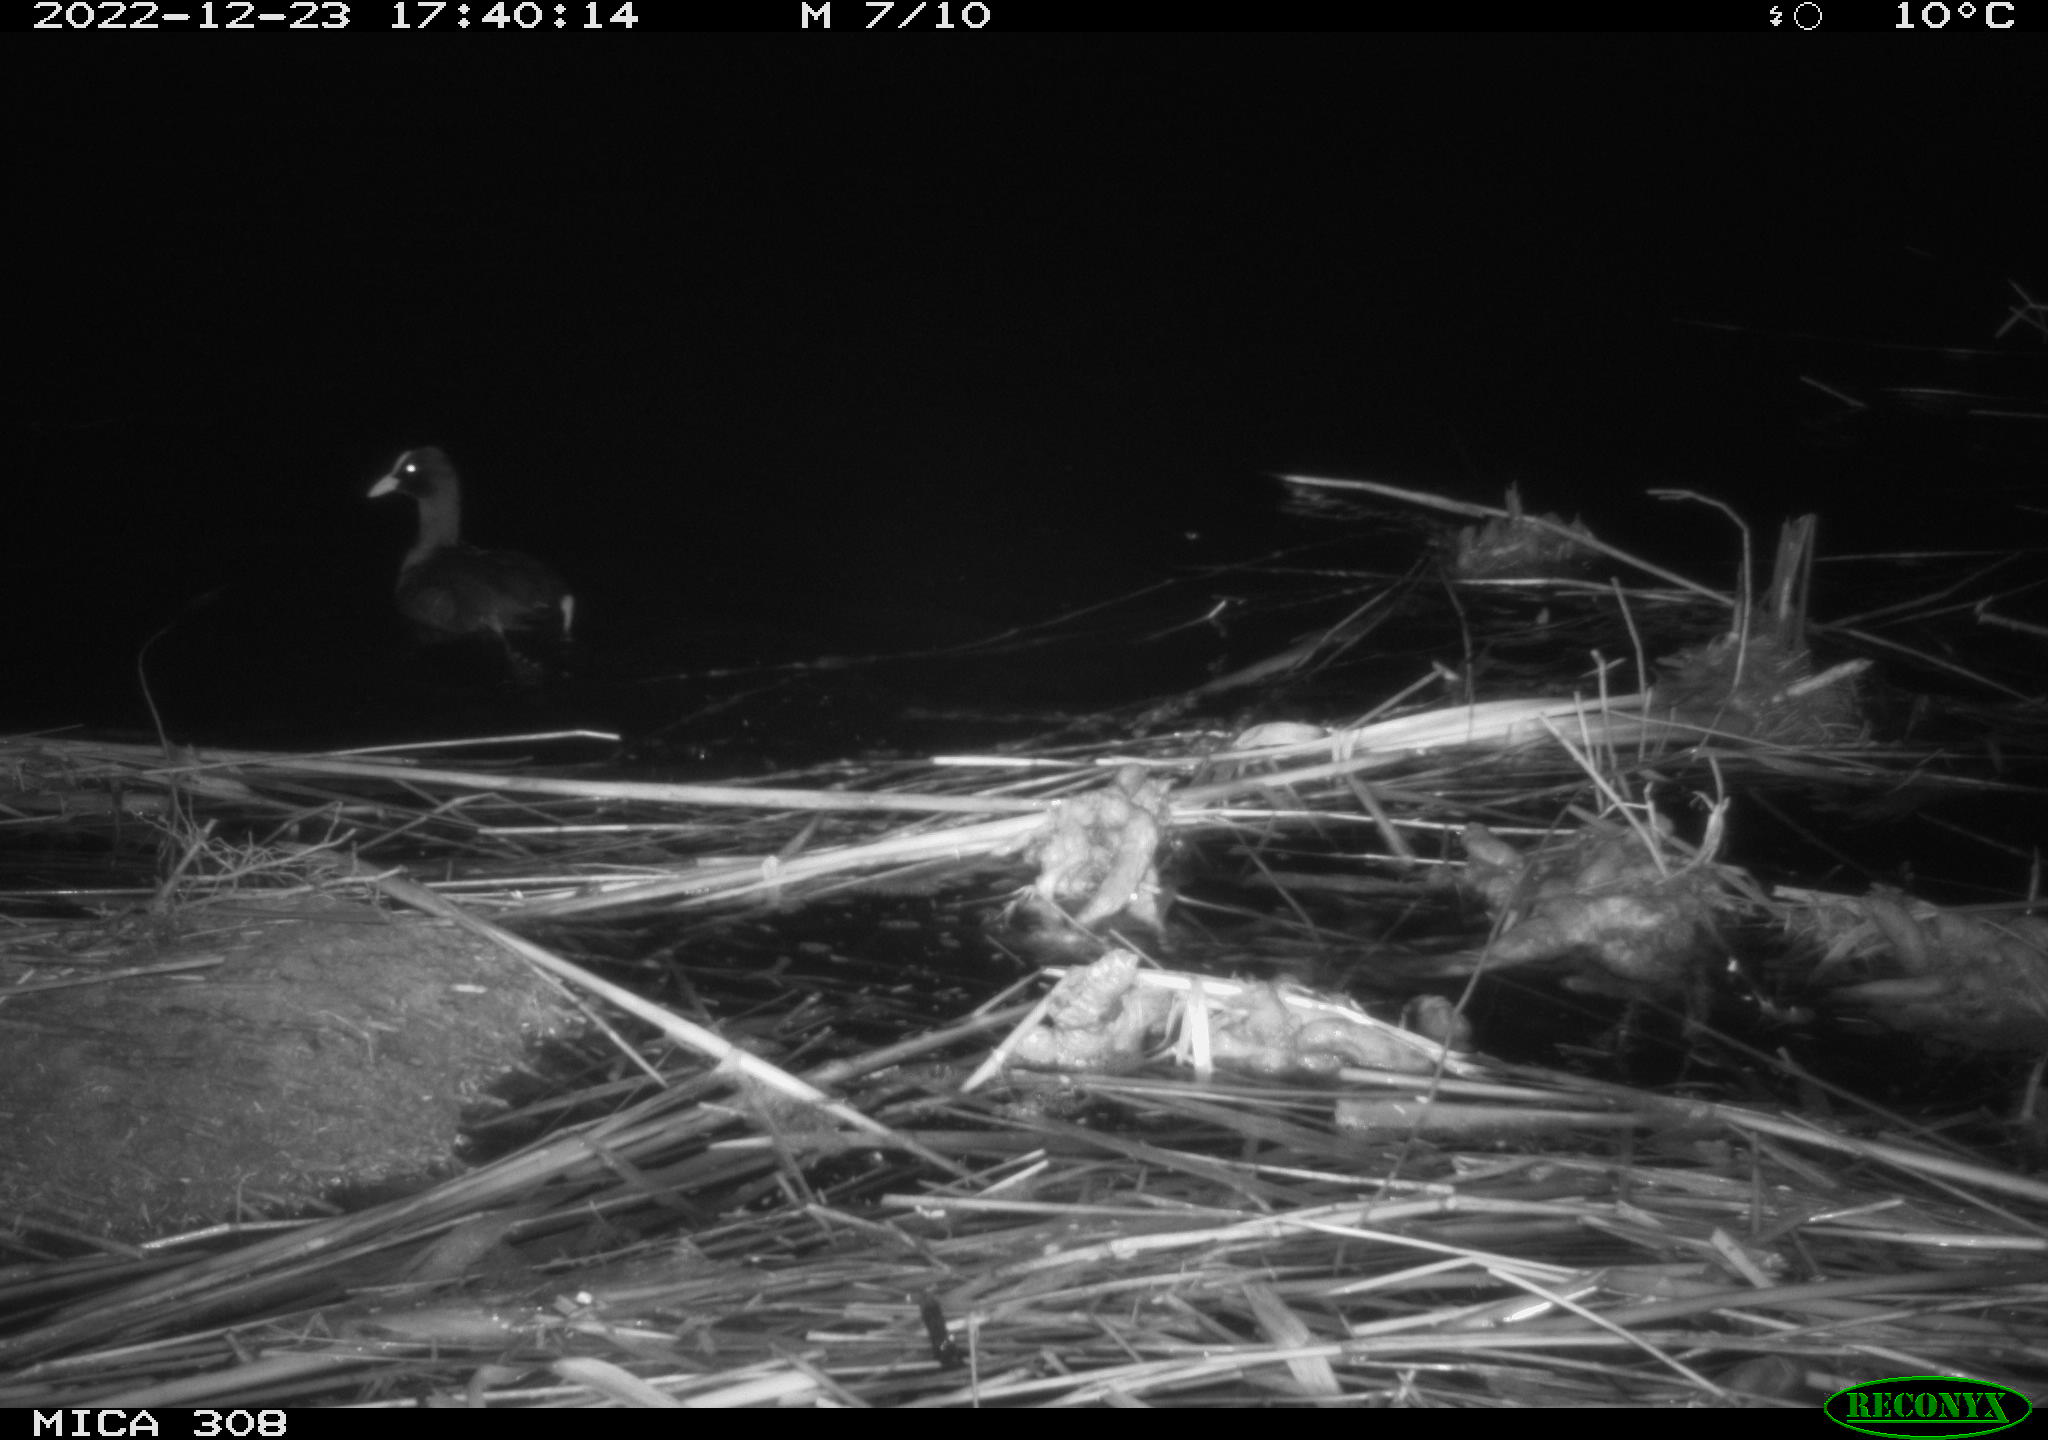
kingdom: Animalia
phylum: Chordata
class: Aves
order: Anseriformes
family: Anatidae
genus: Anas
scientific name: Anas
